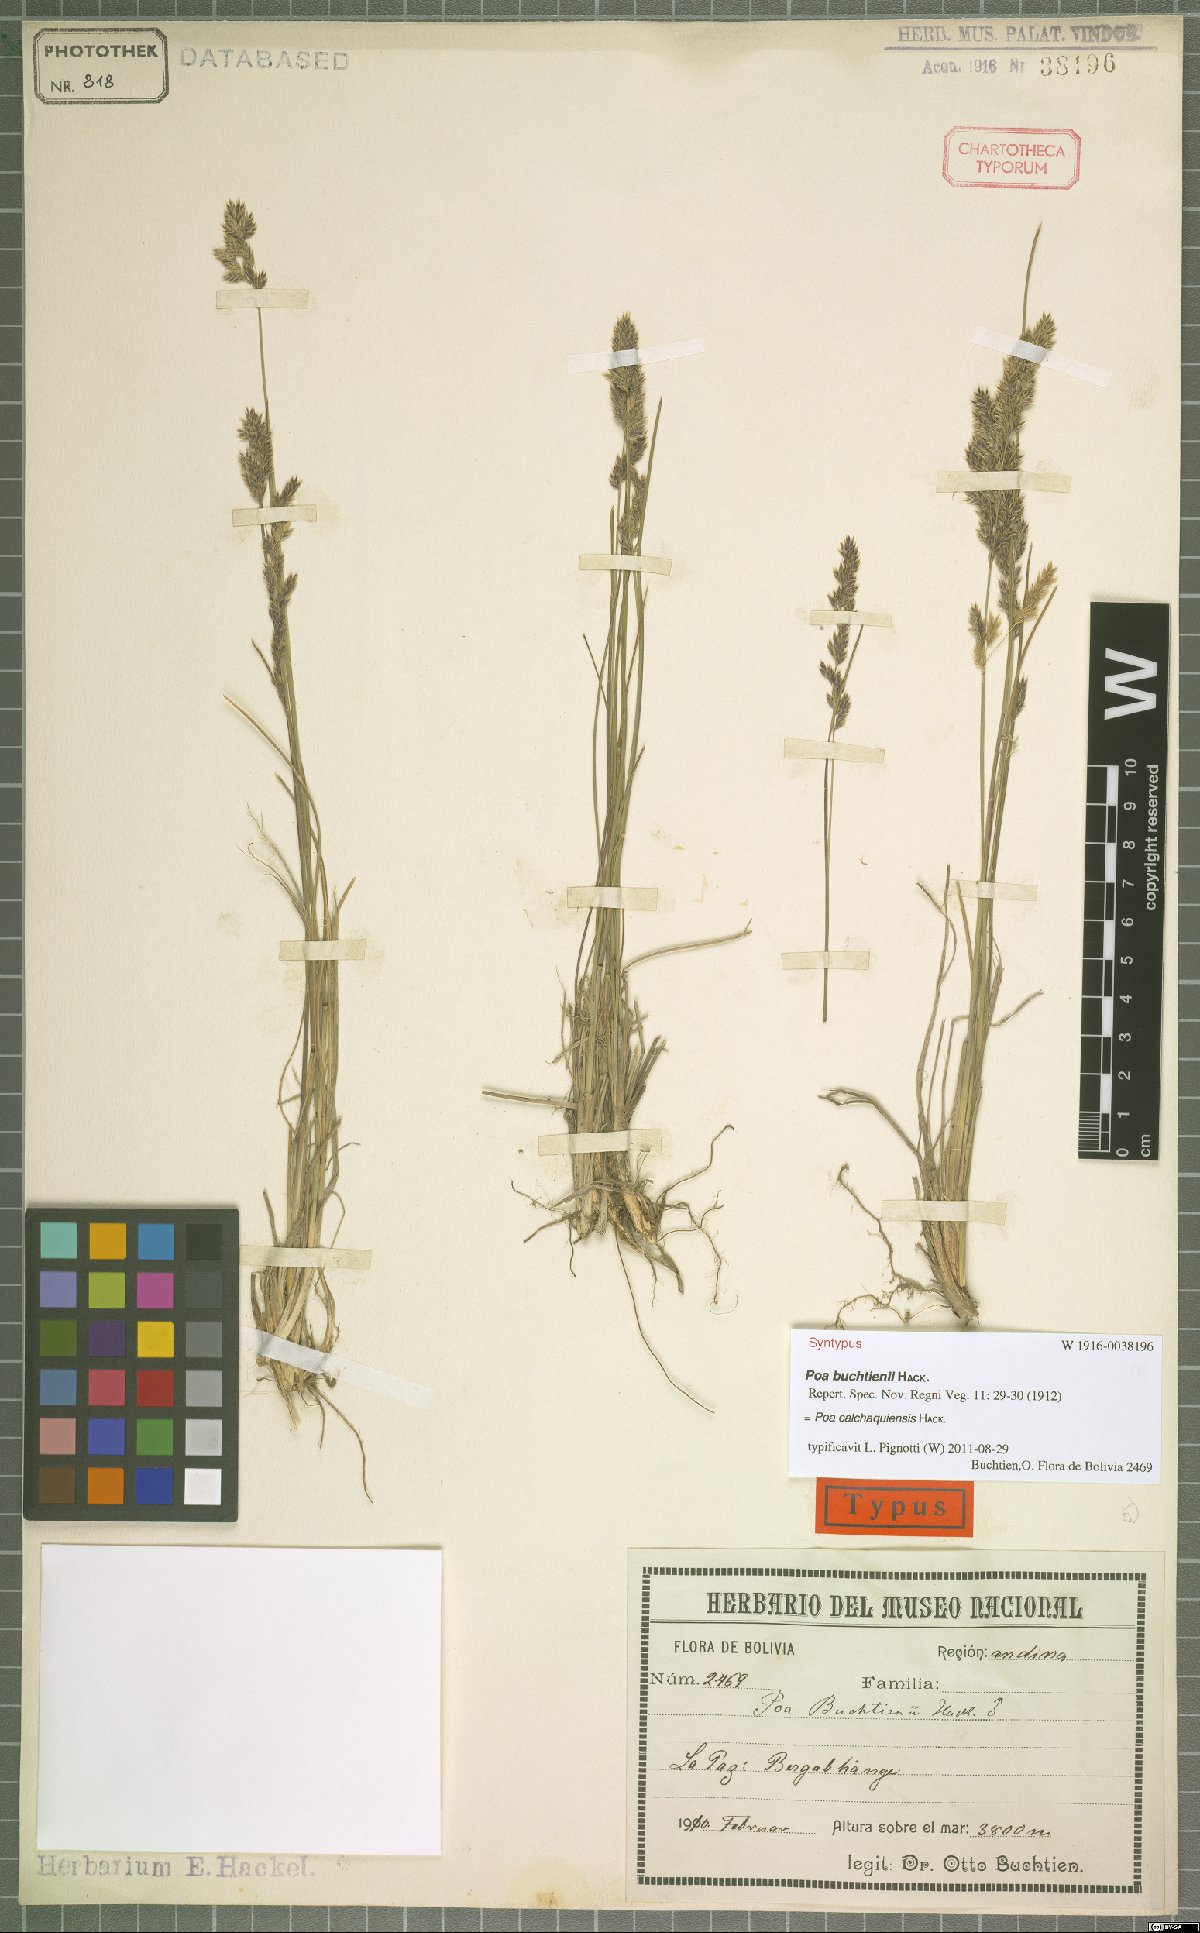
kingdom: Plantae
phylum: Tracheophyta
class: Liliopsida
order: Poales
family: Poaceae
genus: Poa
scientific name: Poa calchaquiensis
